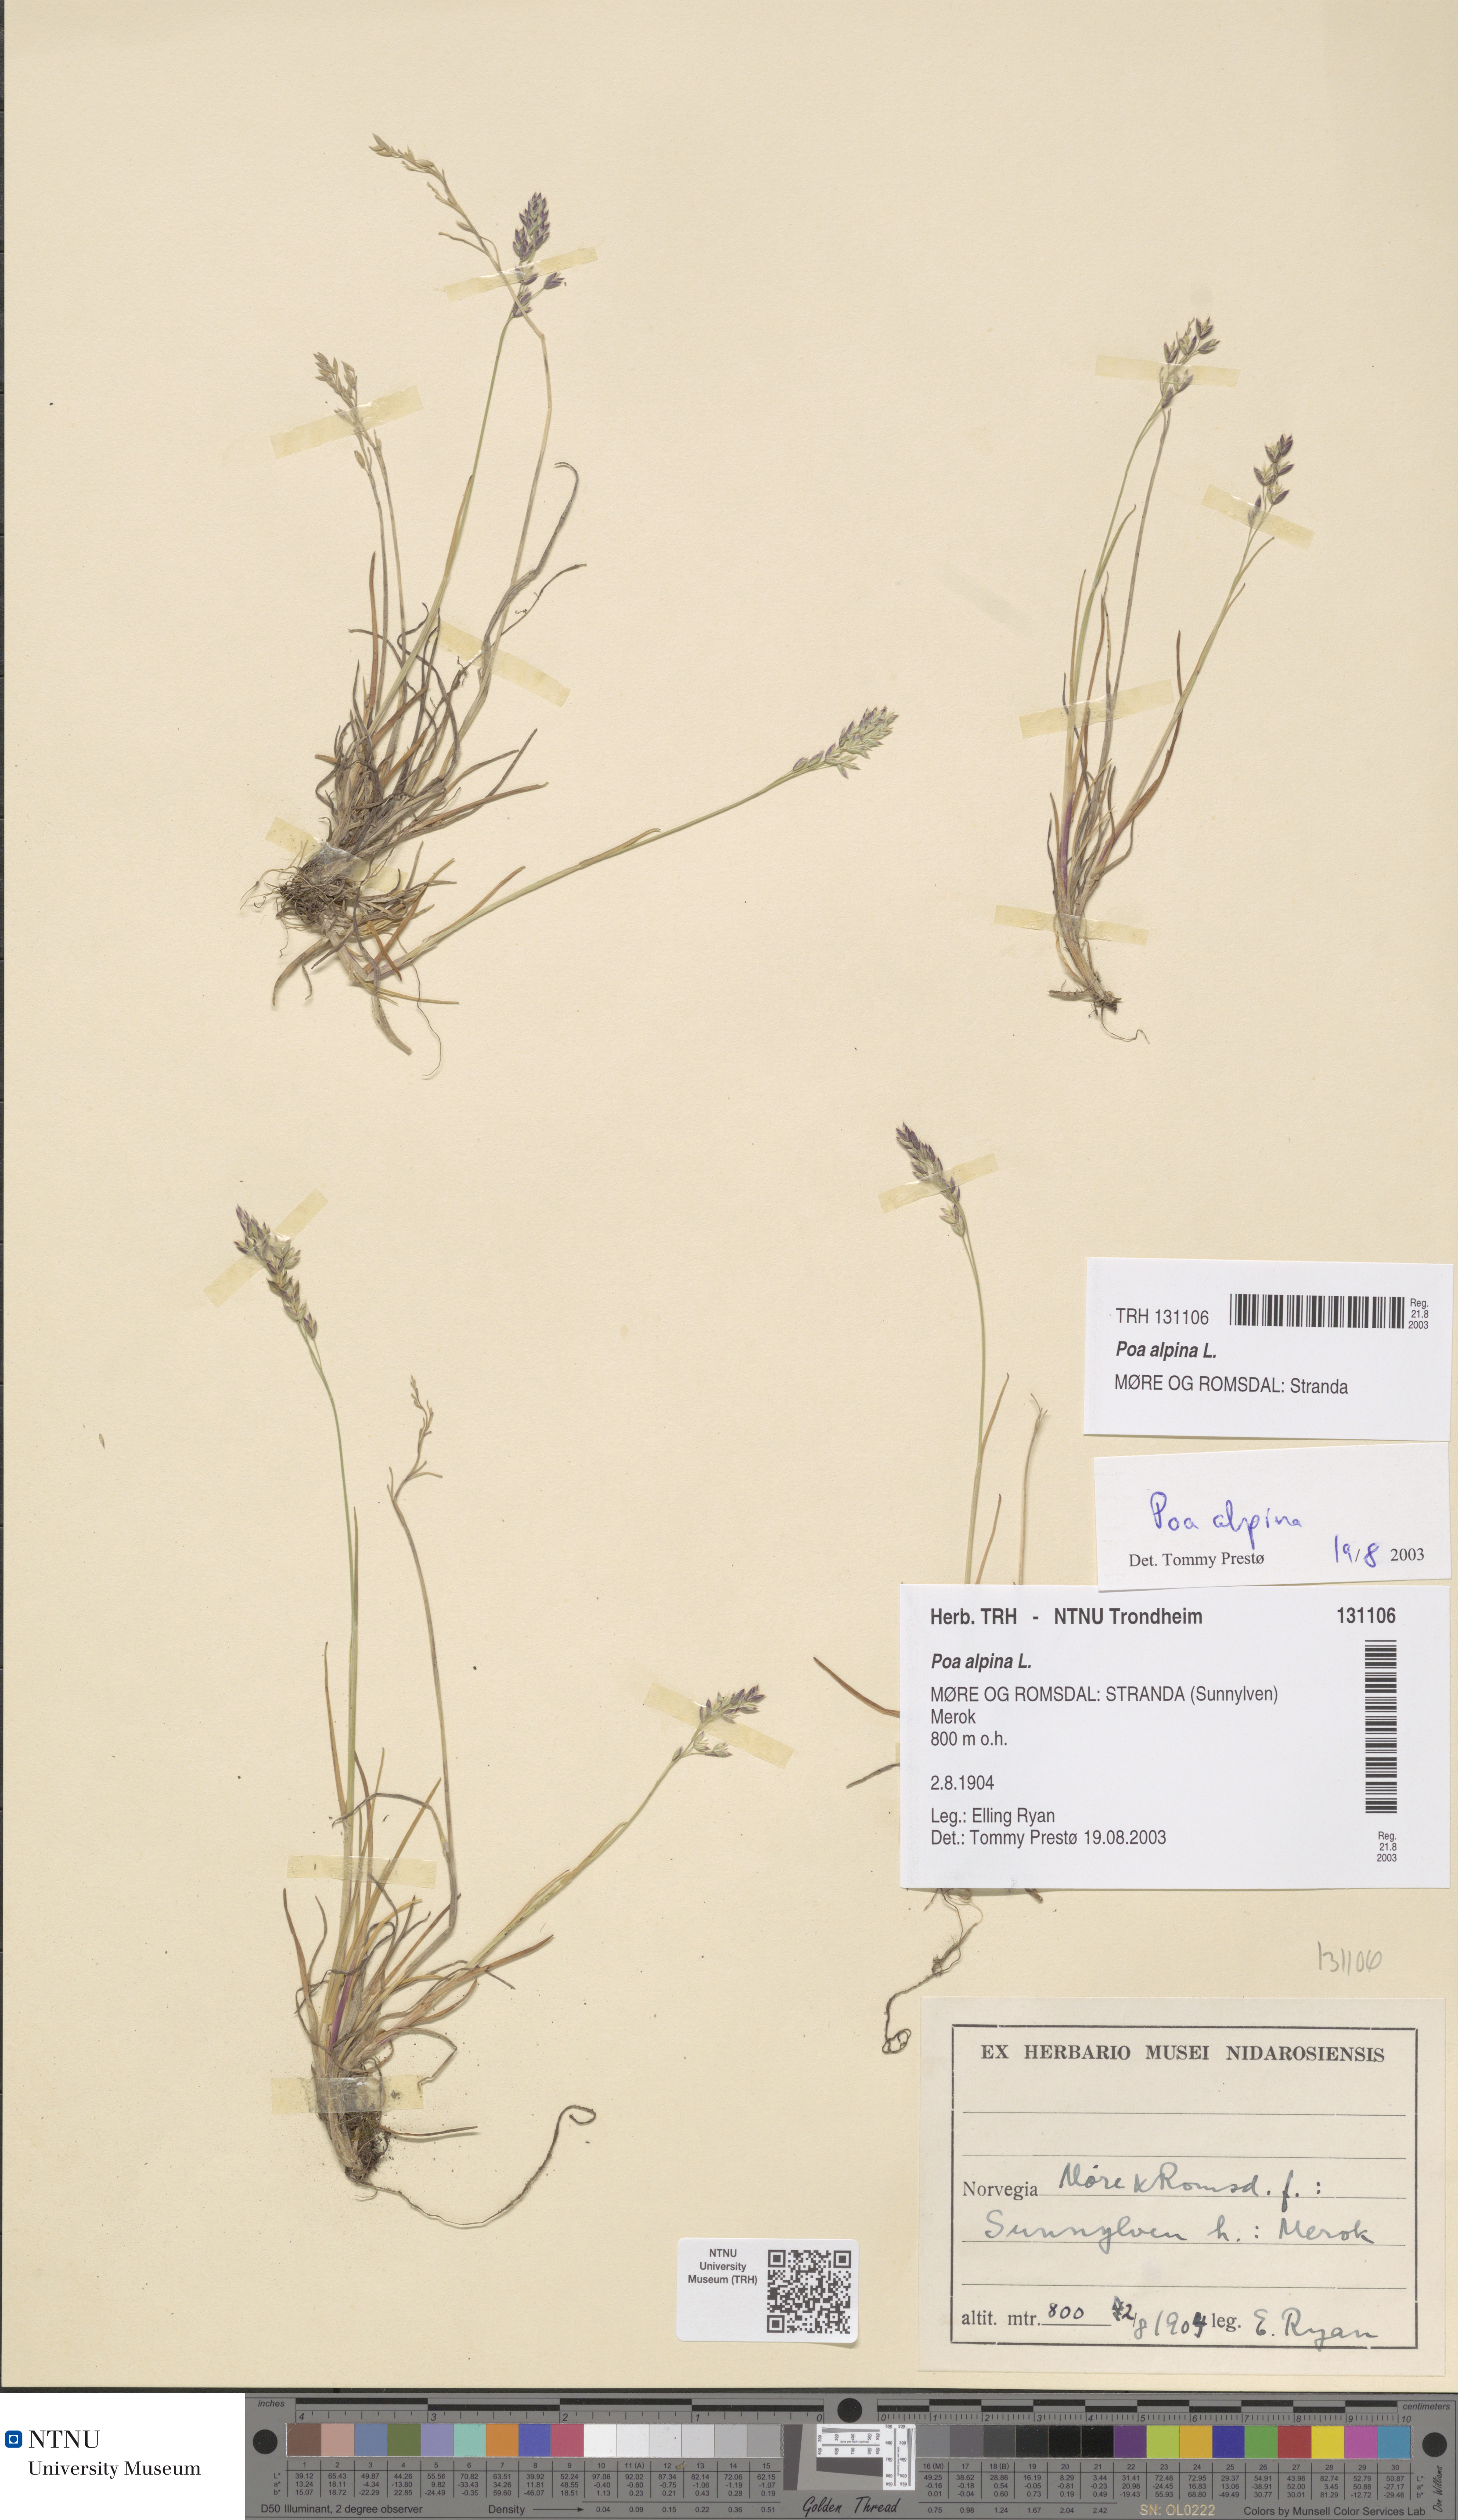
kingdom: Plantae
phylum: Tracheophyta
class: Liliopsida
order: Poales
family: Poaceae
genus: Poa
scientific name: Poa alpina
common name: Alpine bluegrass
